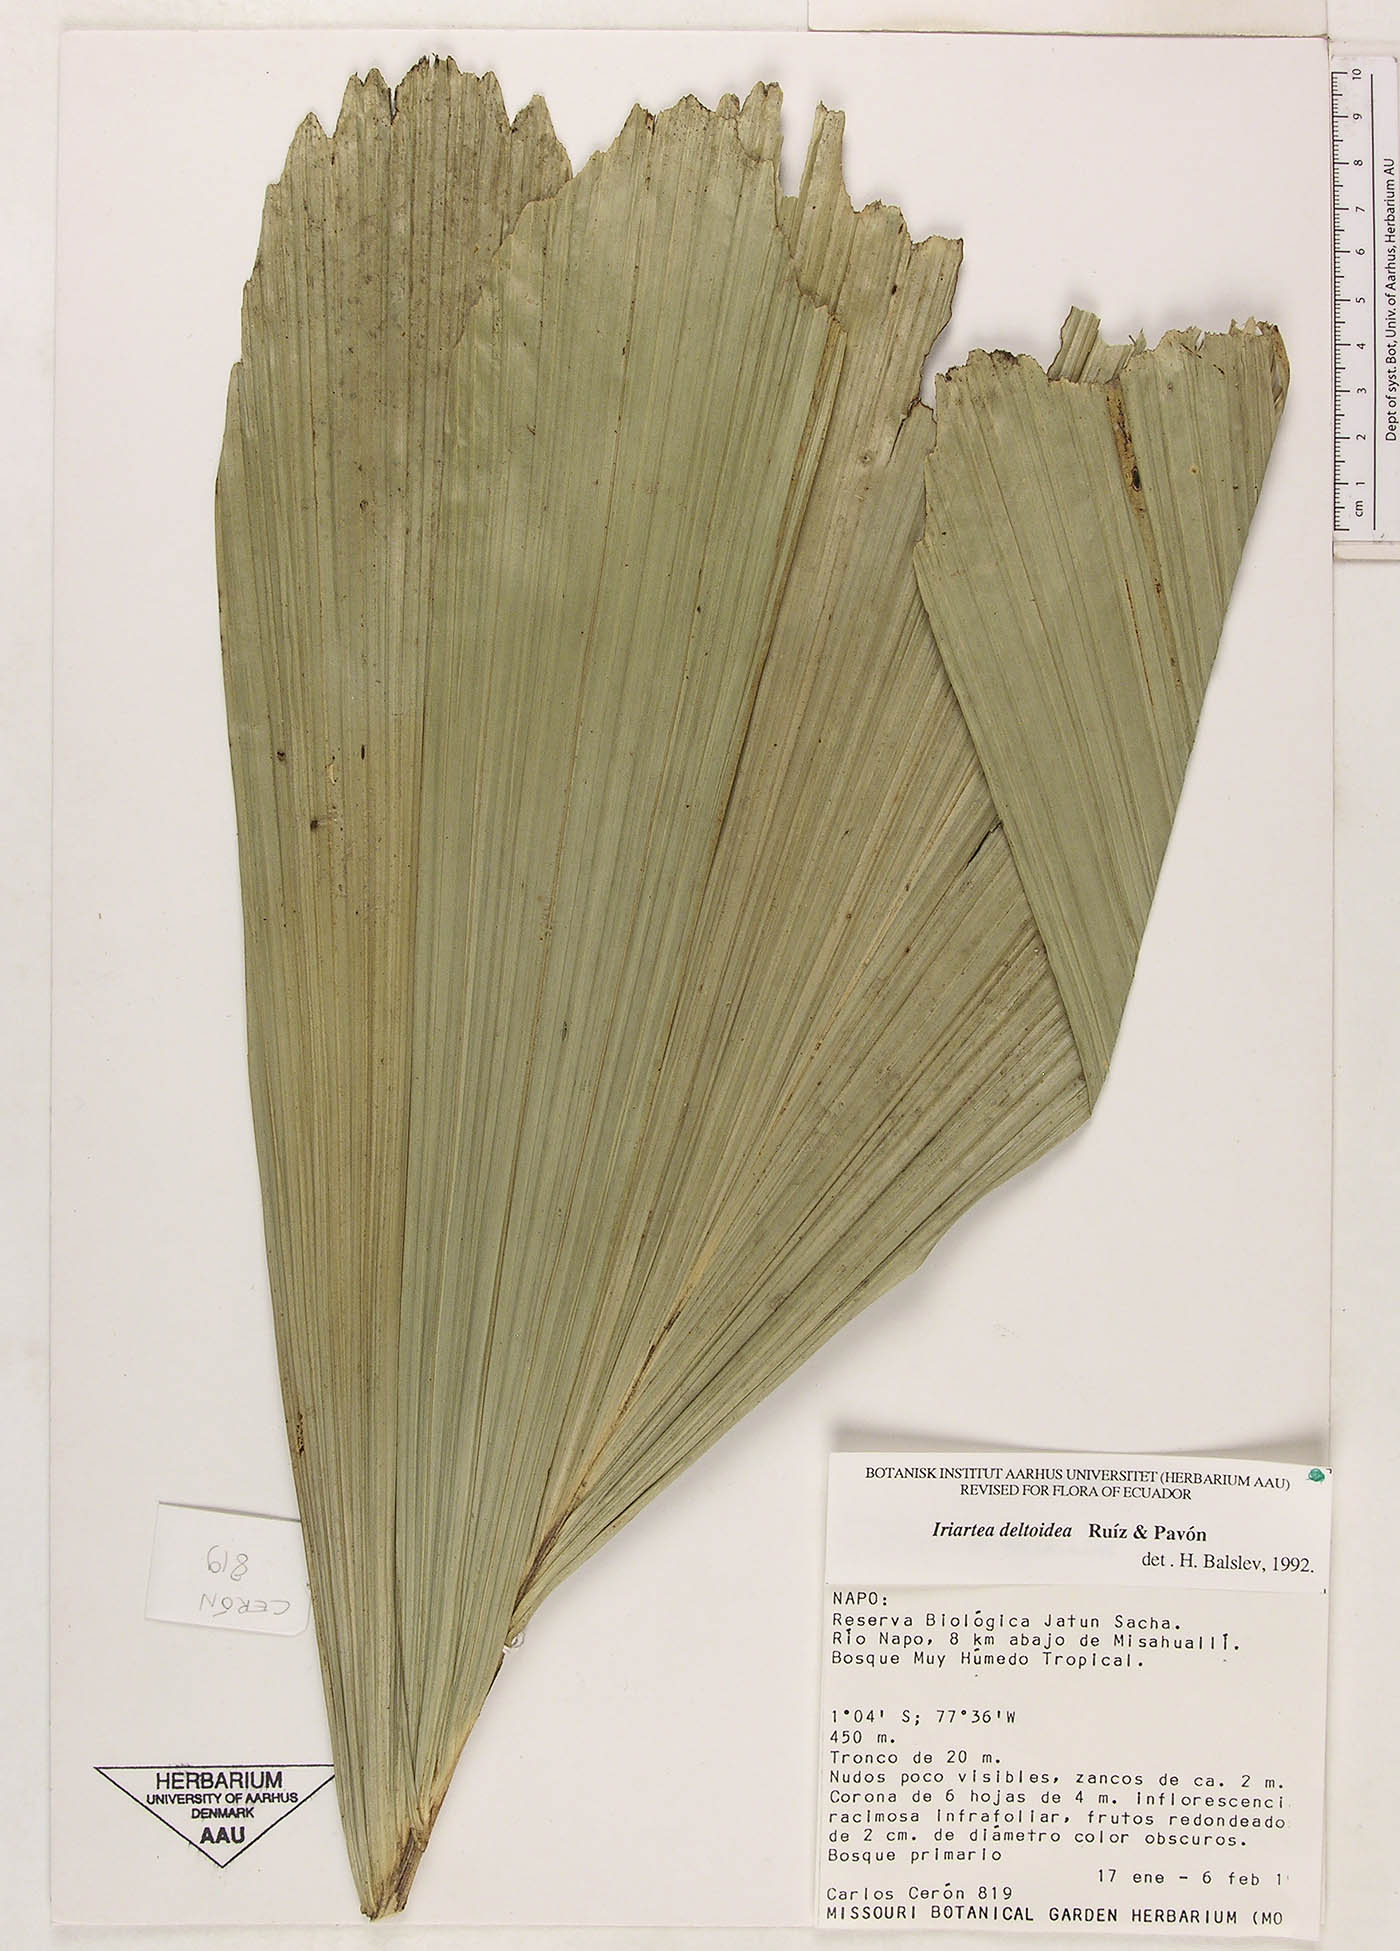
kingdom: Plantae
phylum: Tracheophyta
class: Liliopsida
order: Arecales
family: Arecaceae
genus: Iriartea
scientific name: Iriartea deltoidea
